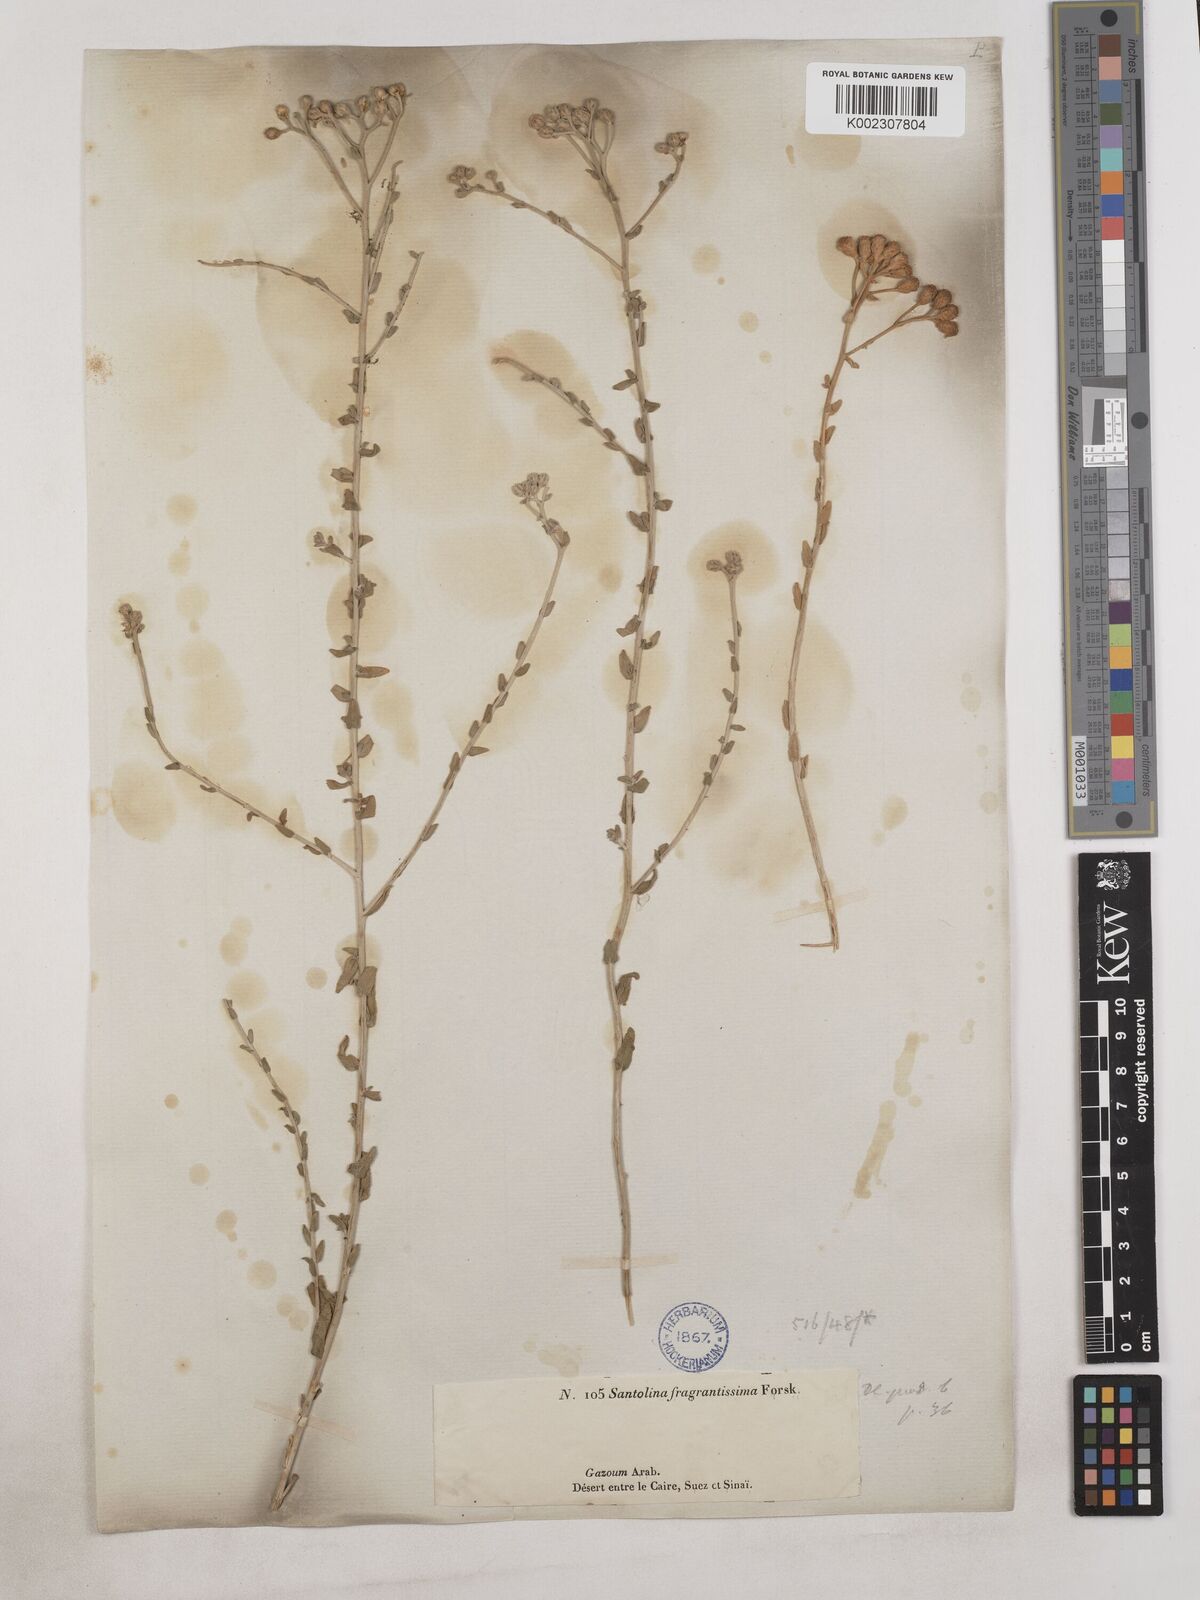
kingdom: Plantae
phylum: Tracheophyta
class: Magnoliopsida
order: Asterales
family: Asteraceae
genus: Achillea
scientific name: Achillea fragrantissima
